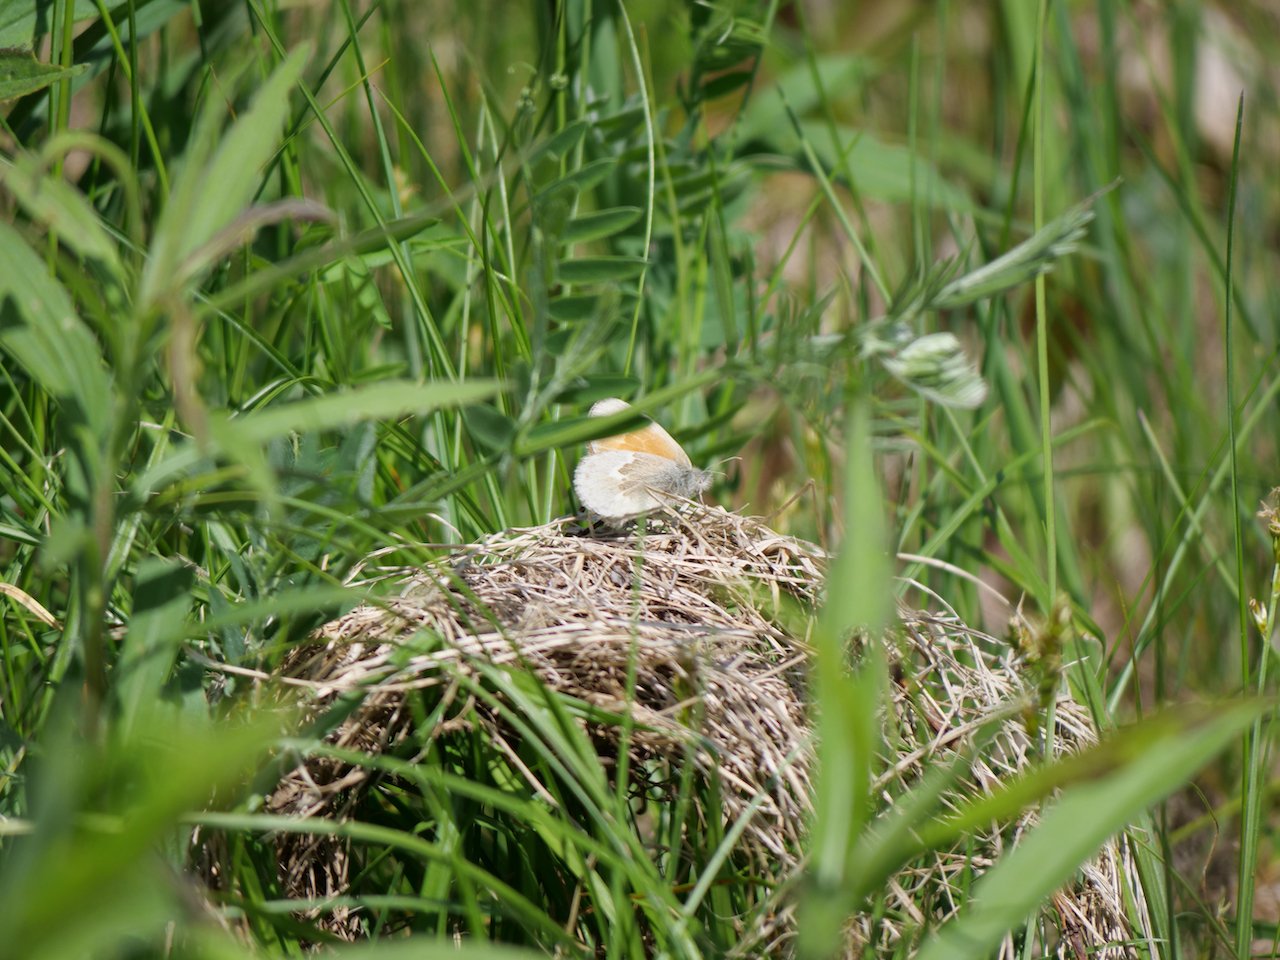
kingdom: Animalia
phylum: Arthropoda
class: Insecta
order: Lepidoptera
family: Nymphalidae
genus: Coenonympha
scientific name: Coenonympha tullia
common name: Large Heath
